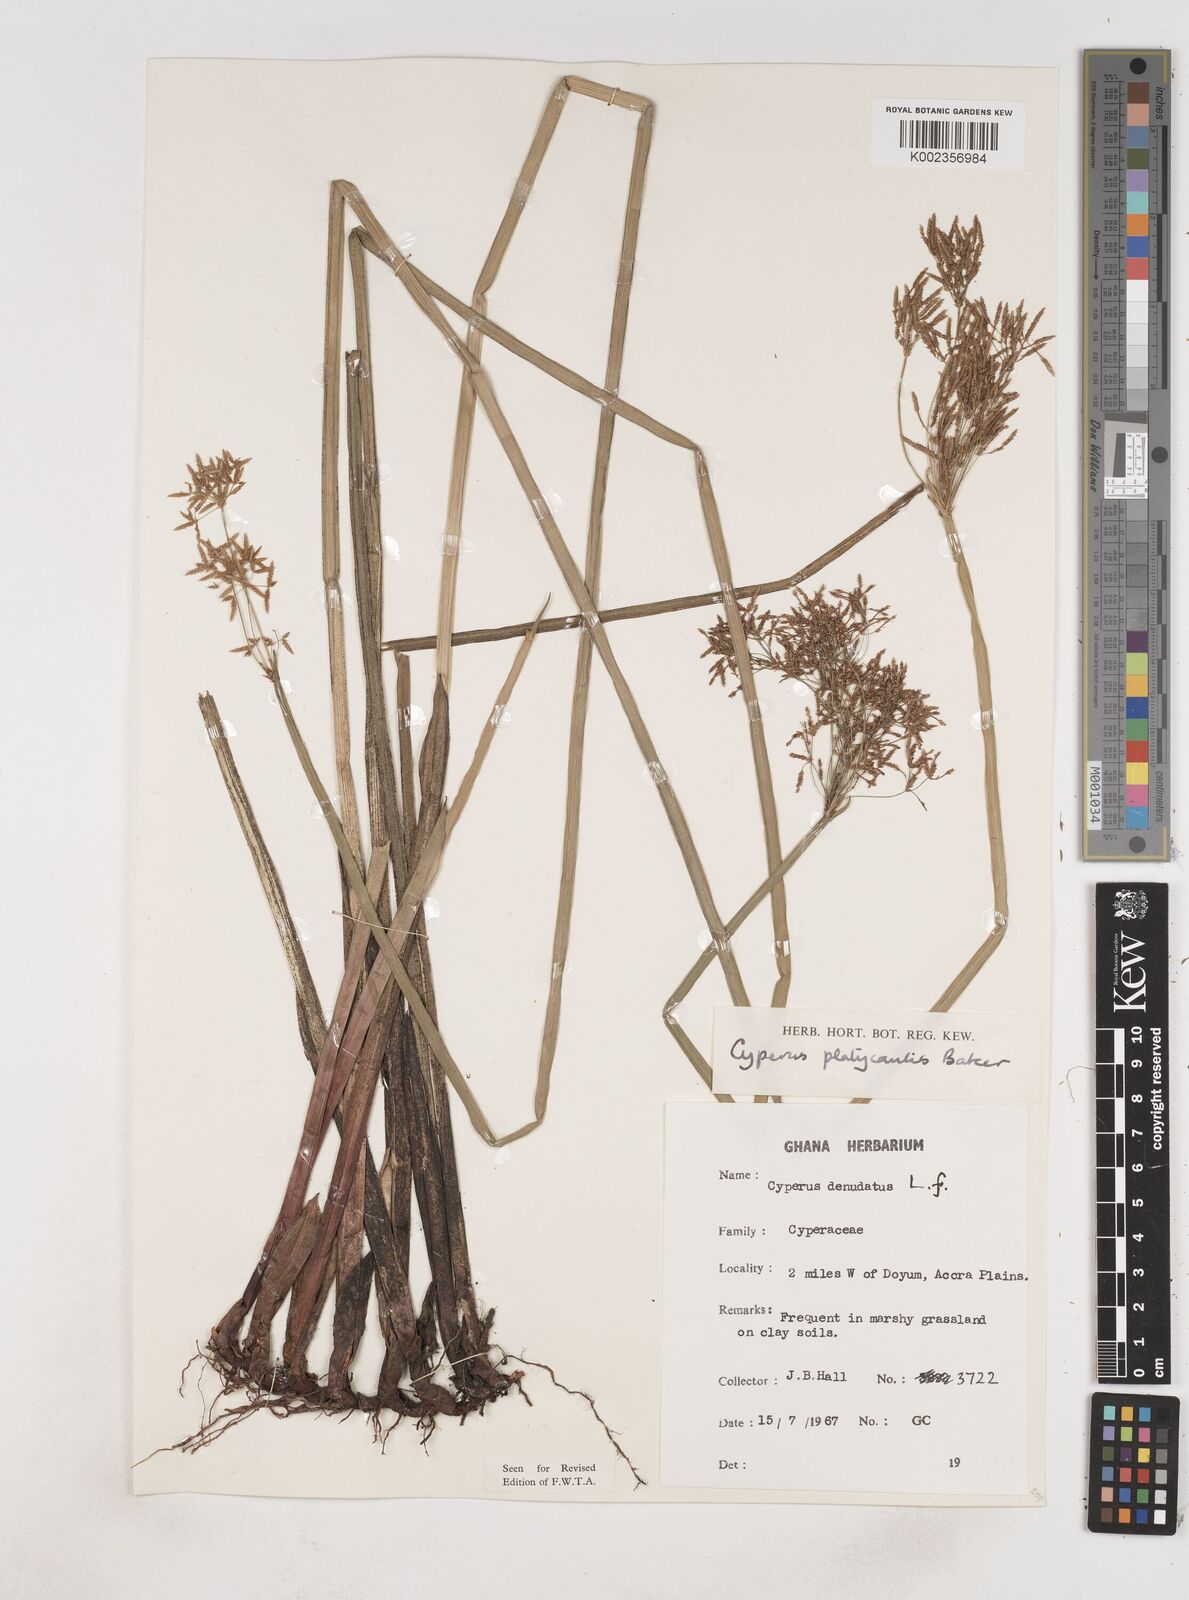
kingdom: Plantae
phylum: Tracheophyta
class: Liliopsida
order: Poales
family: Cyperaceae
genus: Cyperus
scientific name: Cyperus denudatus
